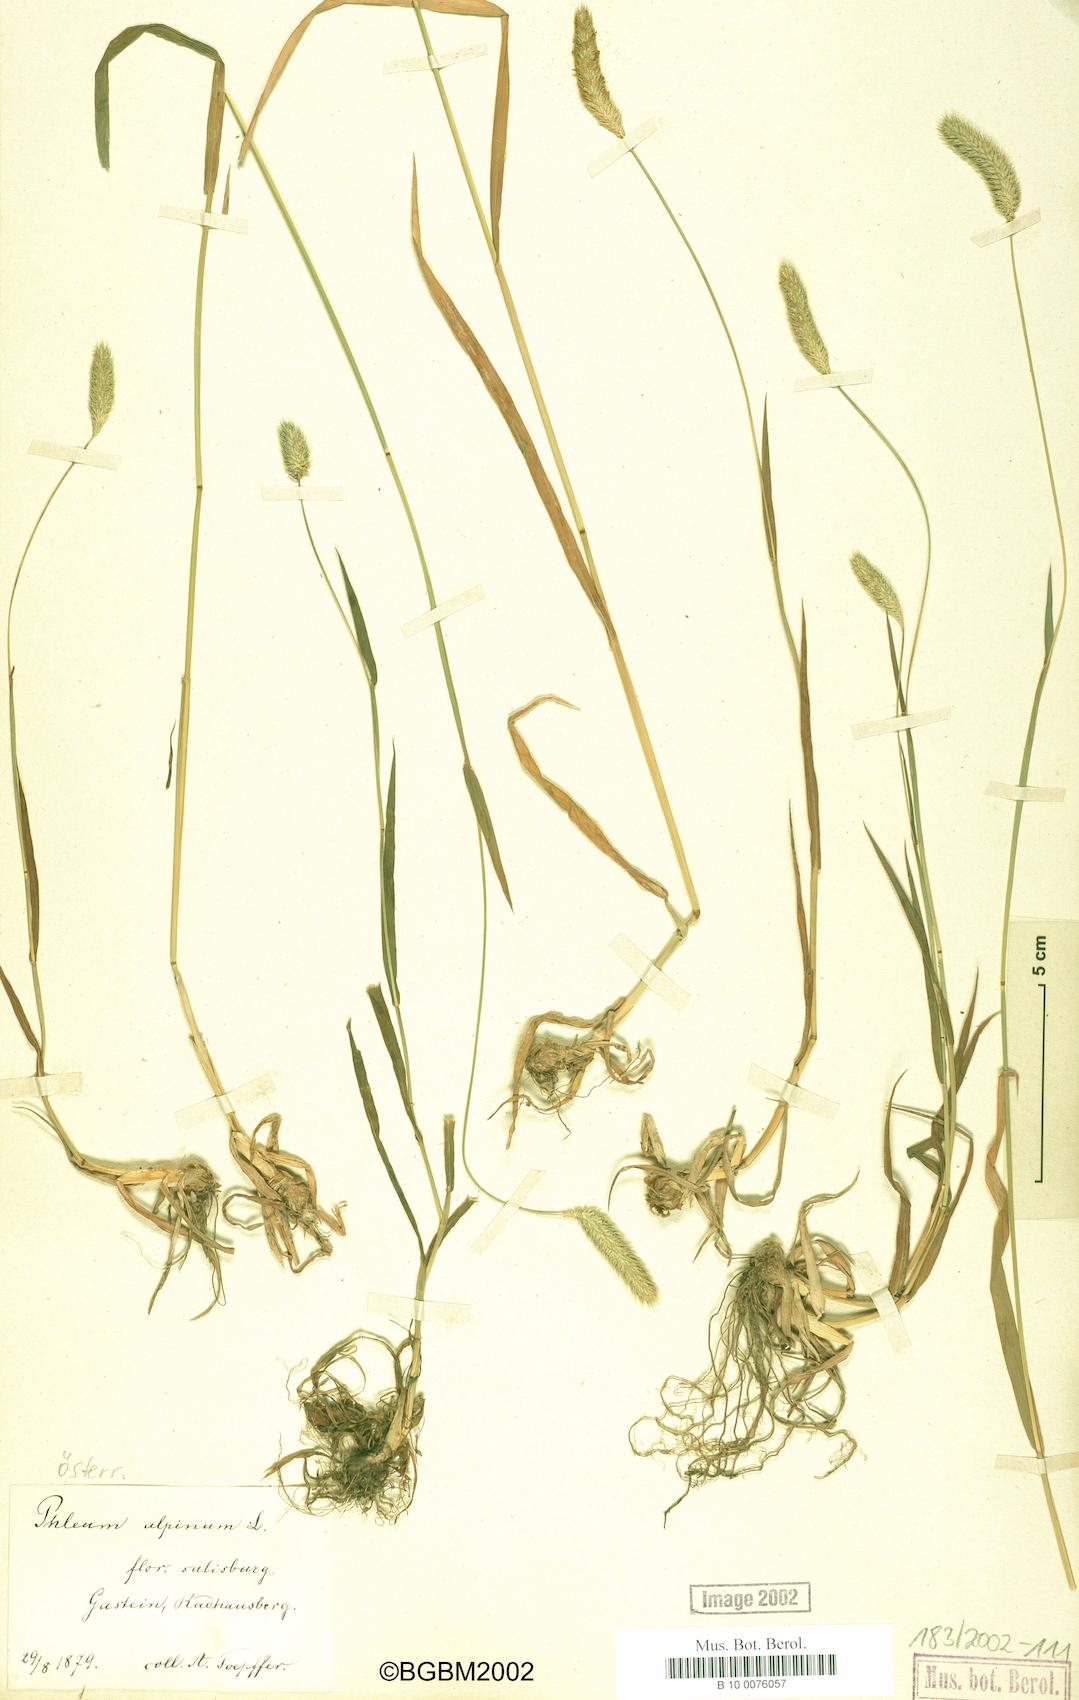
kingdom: Plantae
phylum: Tracheophyta
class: Liliopsida
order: Poales
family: Poaceae
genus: Phleum
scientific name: Phleum alpinum
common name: Alpine cat's-tail
